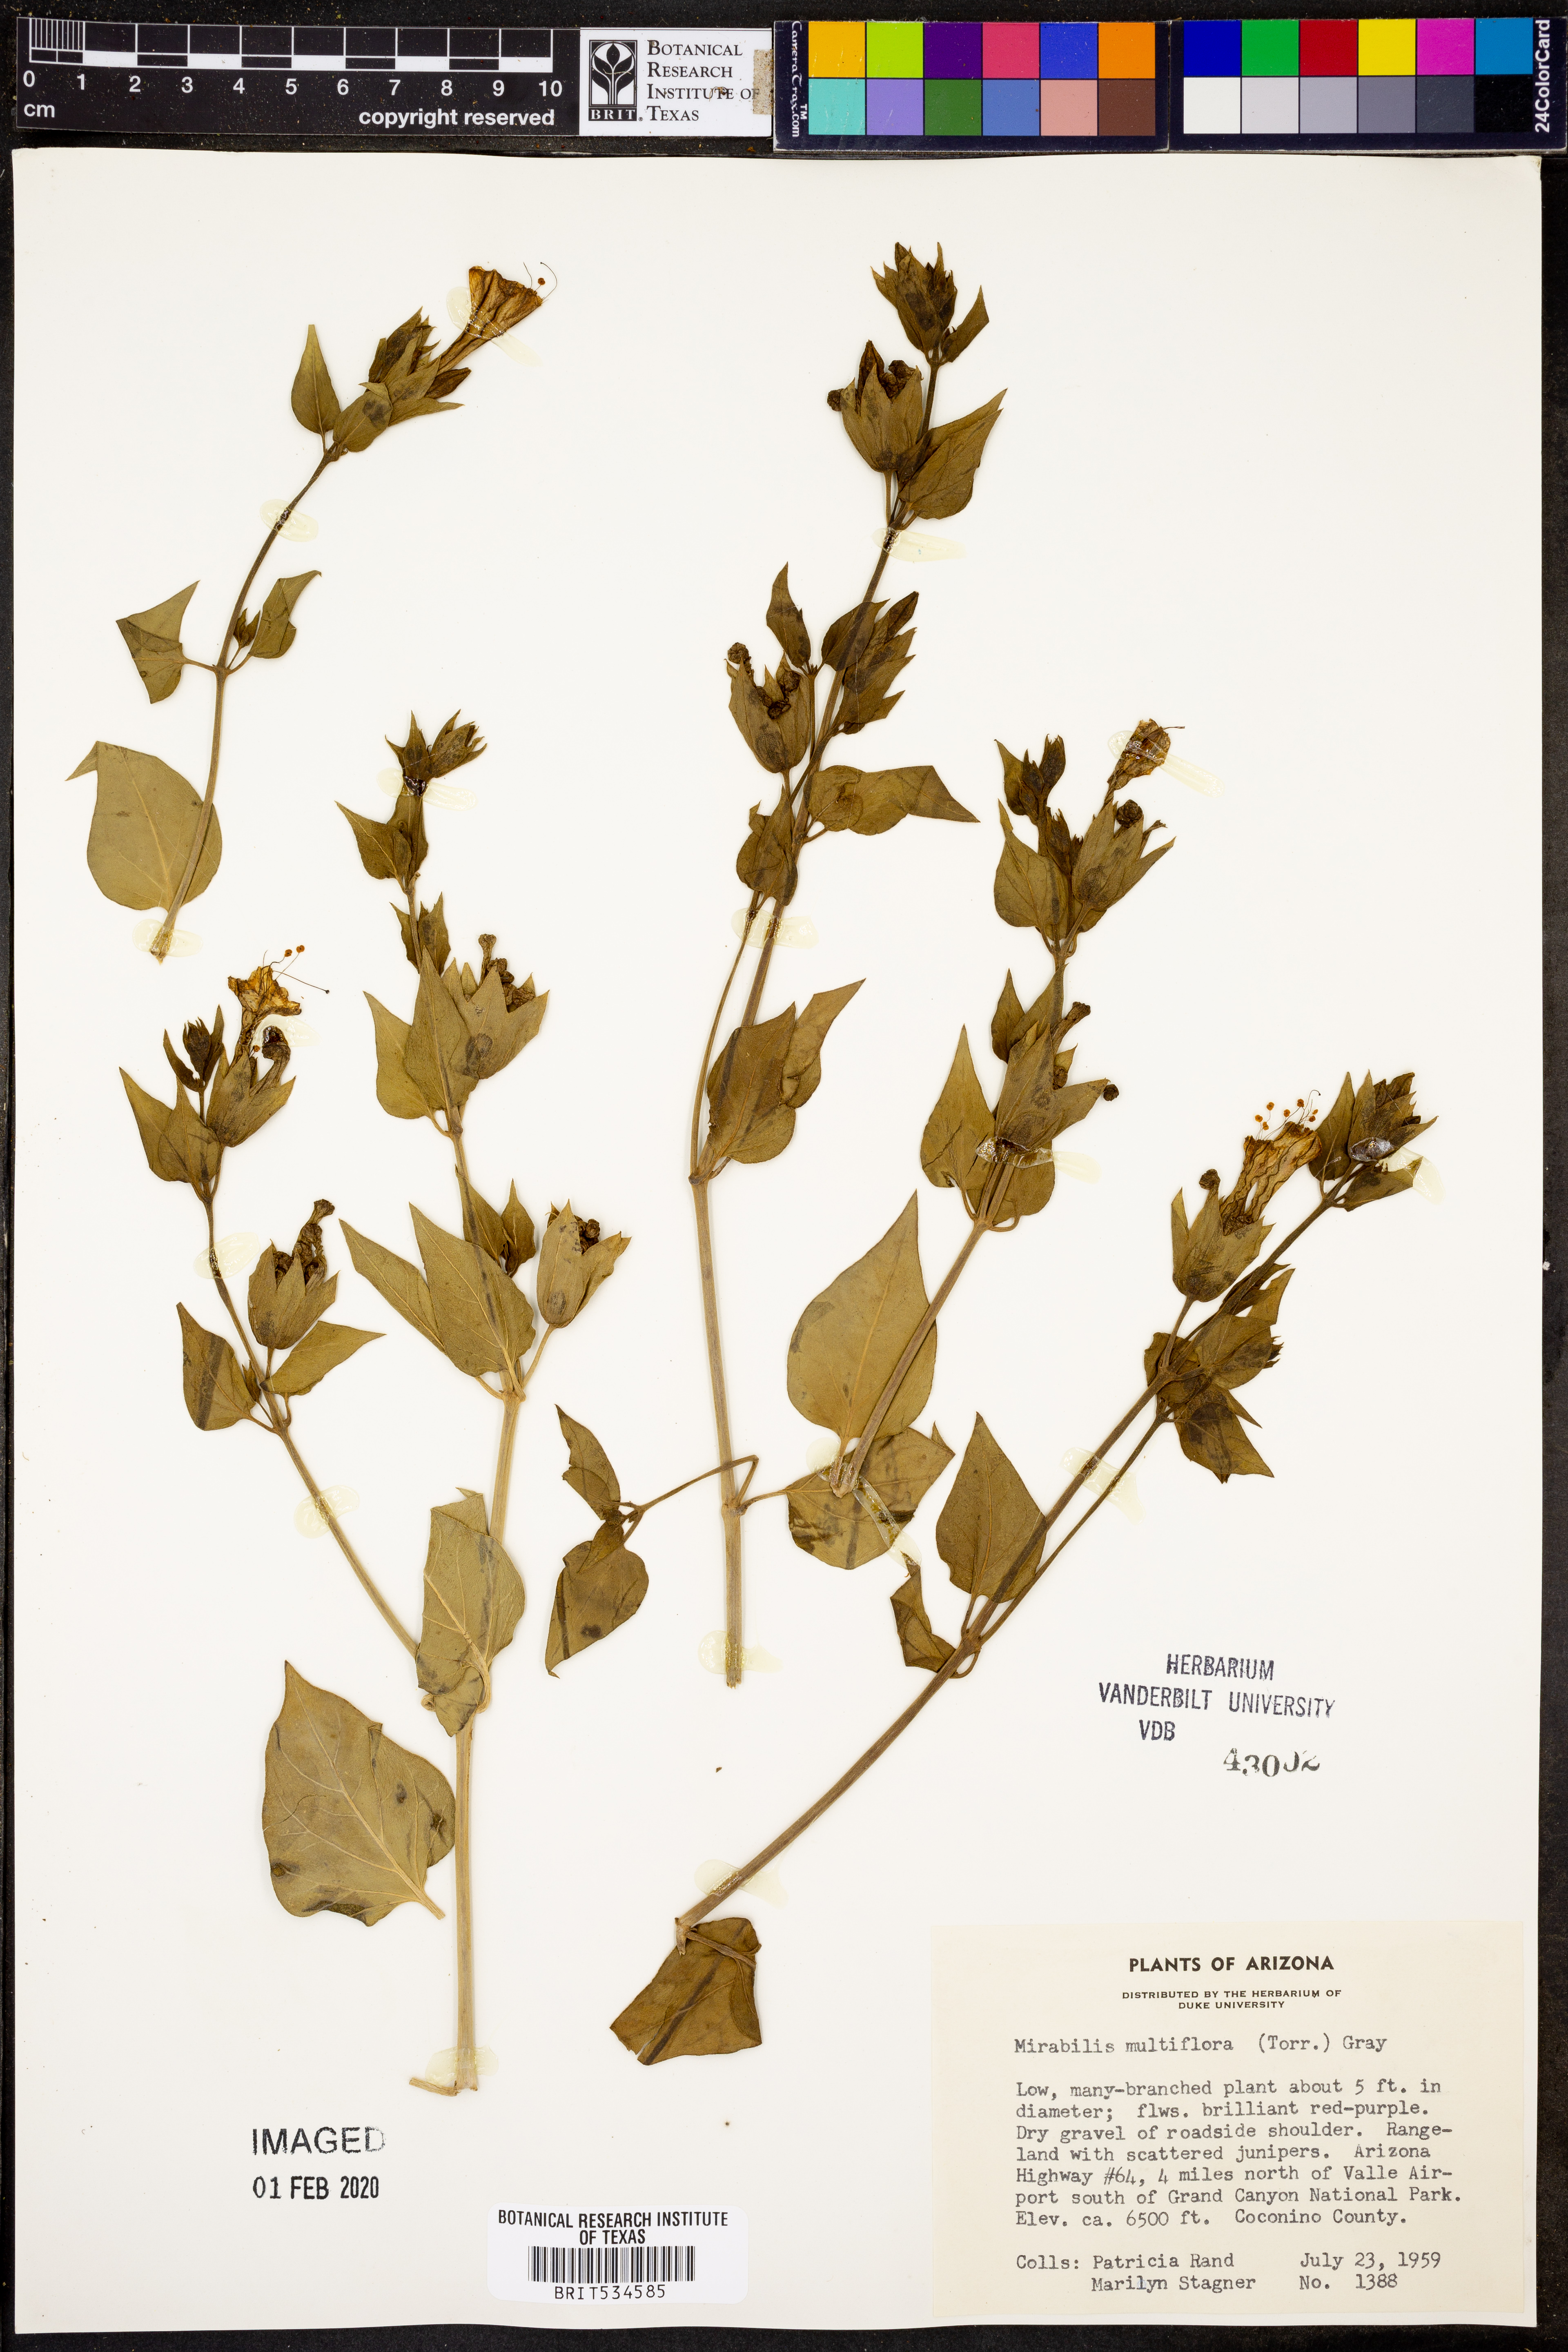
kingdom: Plantae
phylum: Tracheophyta
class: Magnoliopsida
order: Caryophyllales
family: Nyctaginaceae
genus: Mirabilis
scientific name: Mirabilis multiflora
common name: Froebel's four-o'clock
